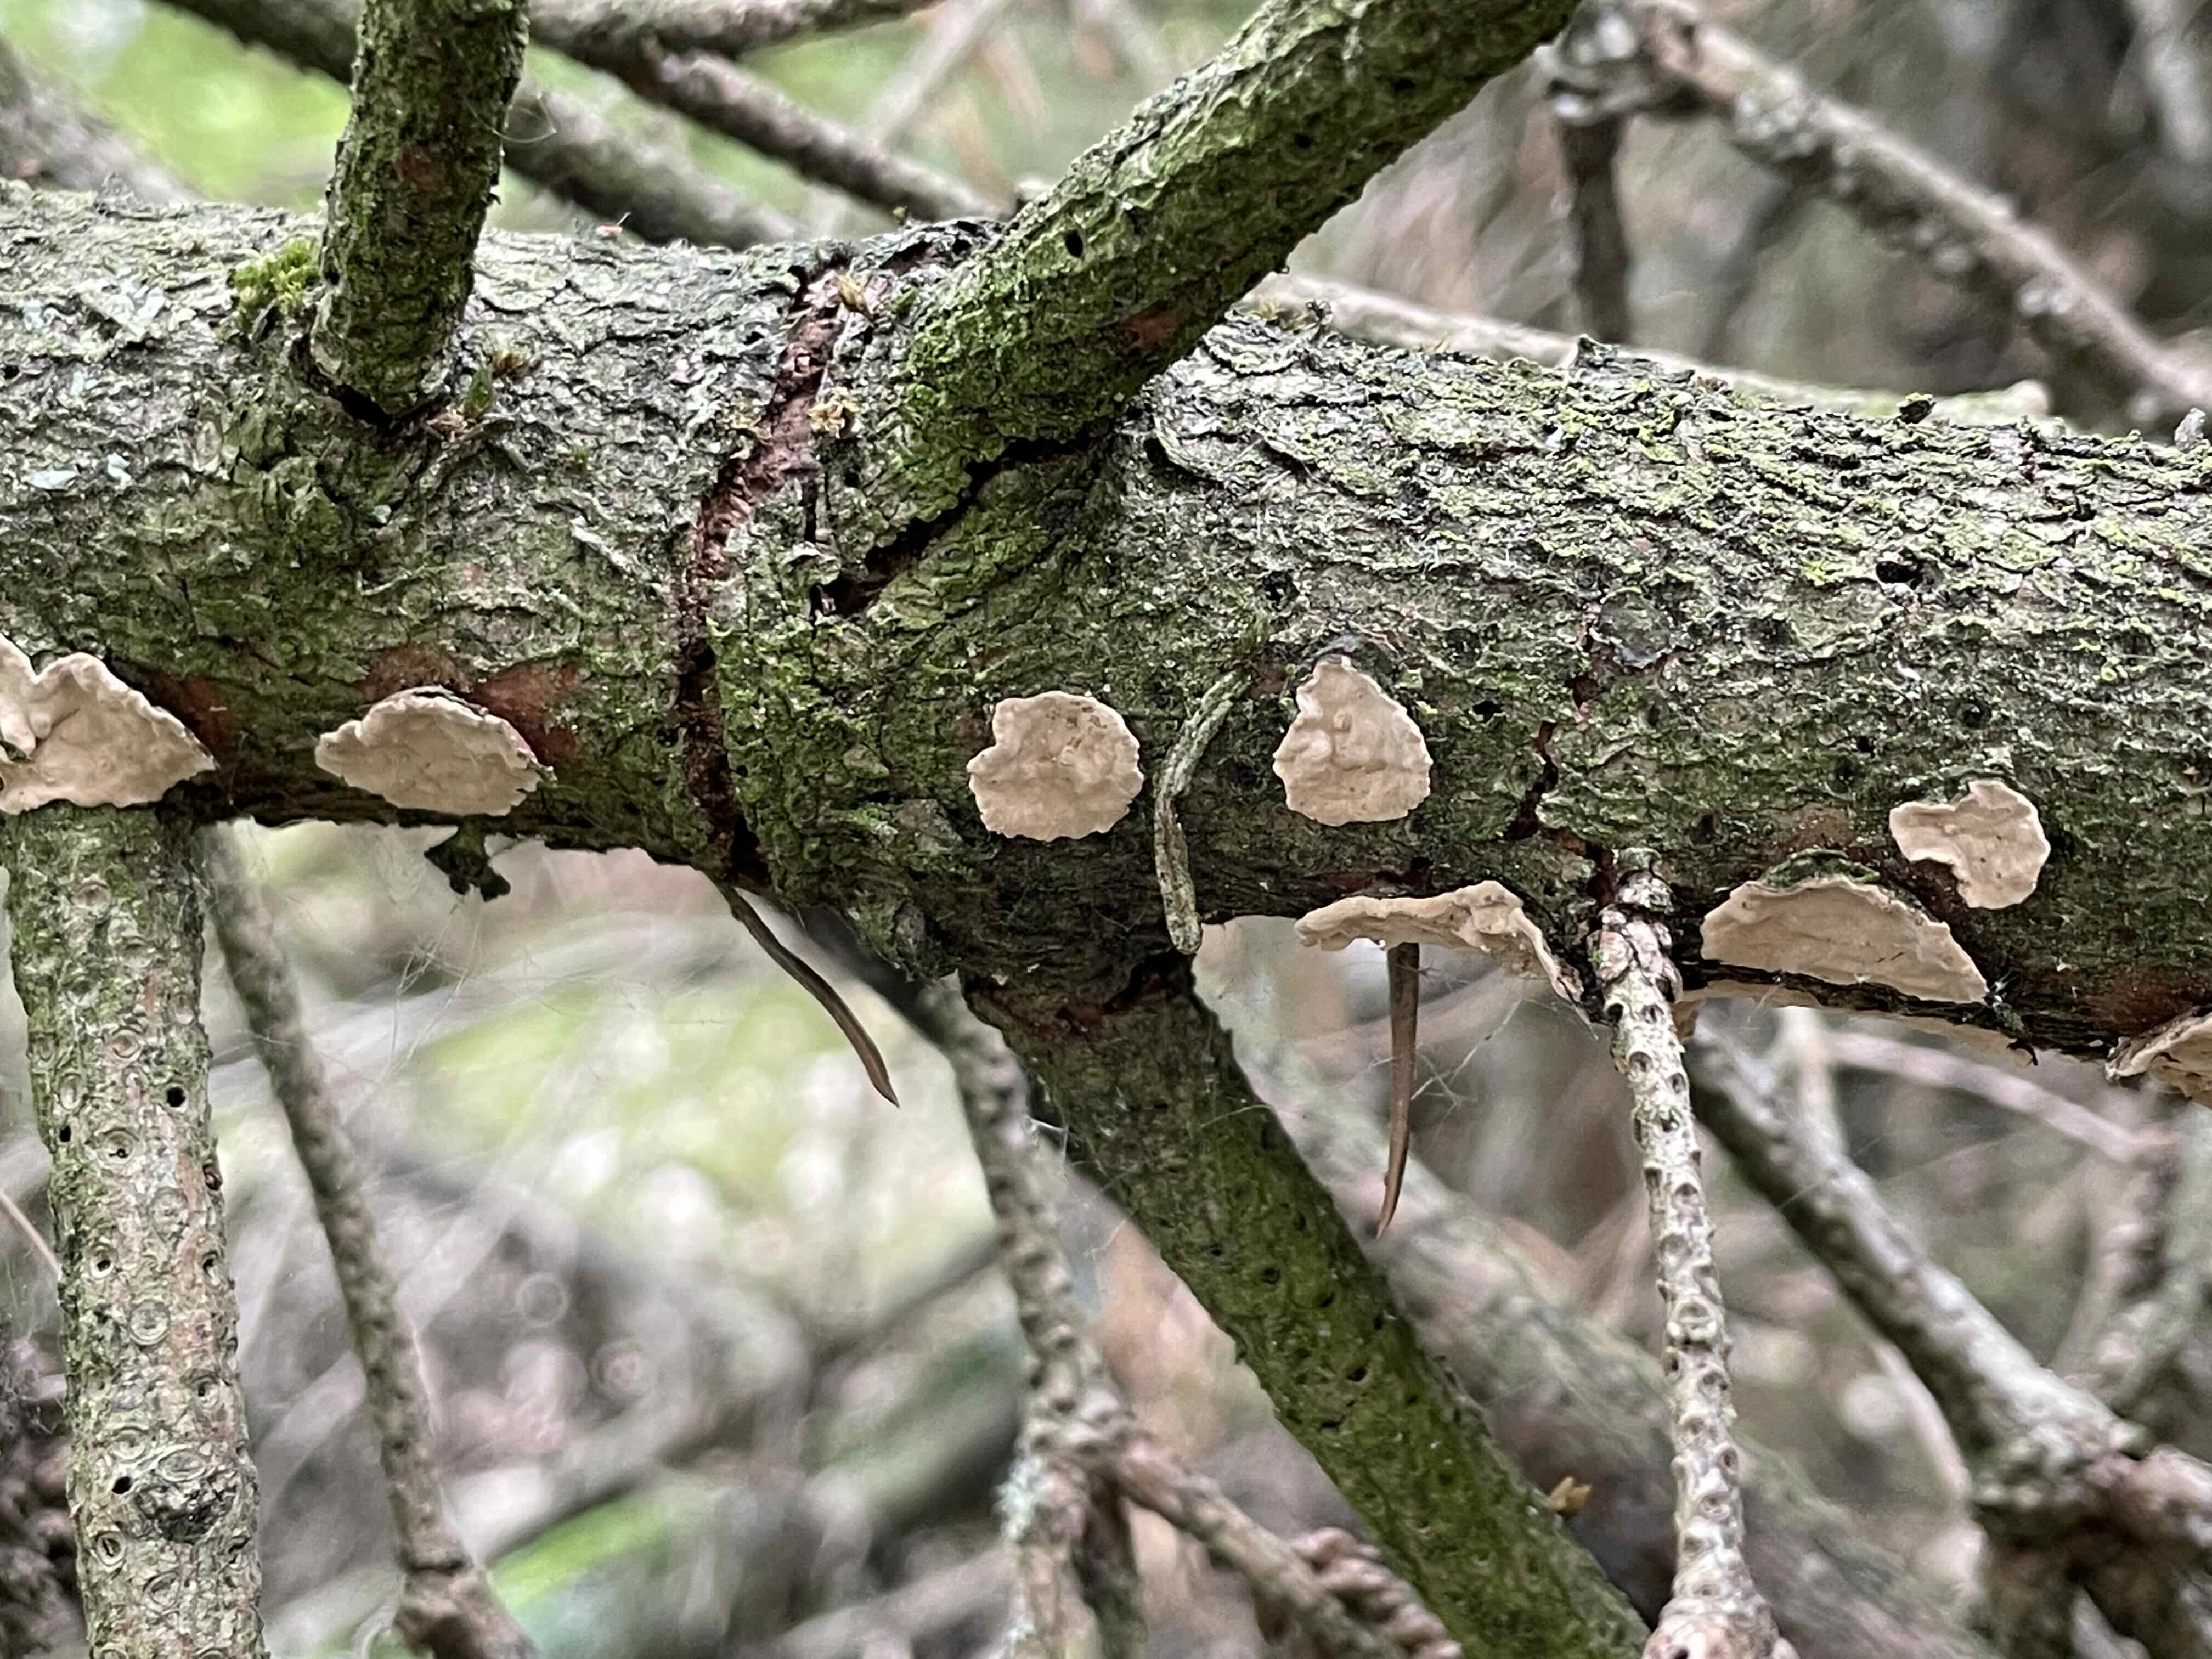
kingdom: Fungi
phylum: Basidiomycota
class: Agaricomycetes
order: Russulales
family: Stereaceae
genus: Stereum
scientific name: Stereum sanguinolentum
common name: blødende lædersvamp
